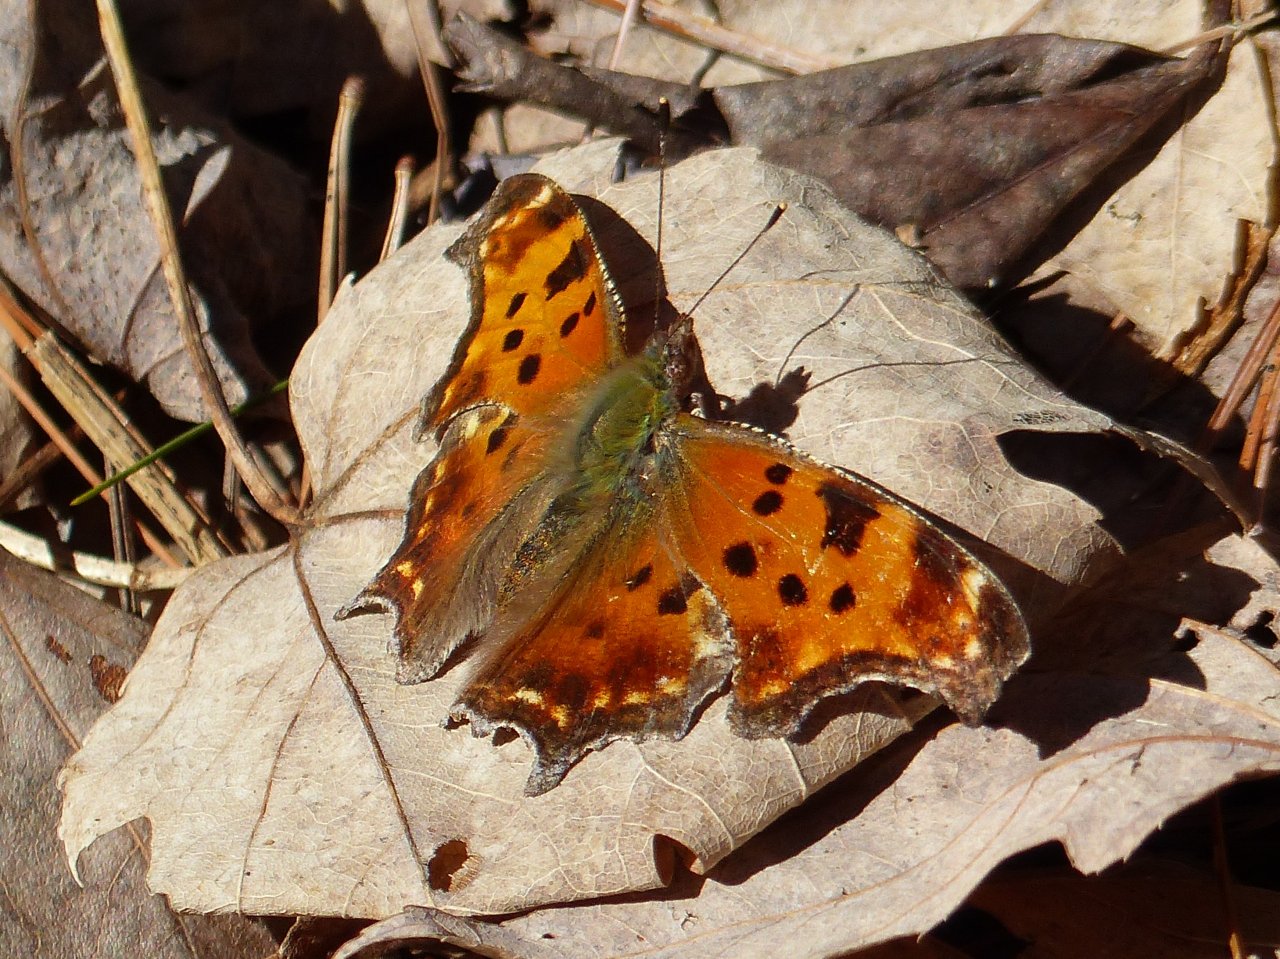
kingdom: Animalia
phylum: Arthropoda
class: Insecta
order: Lepidoptera
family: Nymphalidae
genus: Polygonia
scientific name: Polygonia comma
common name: Eastern Comma
